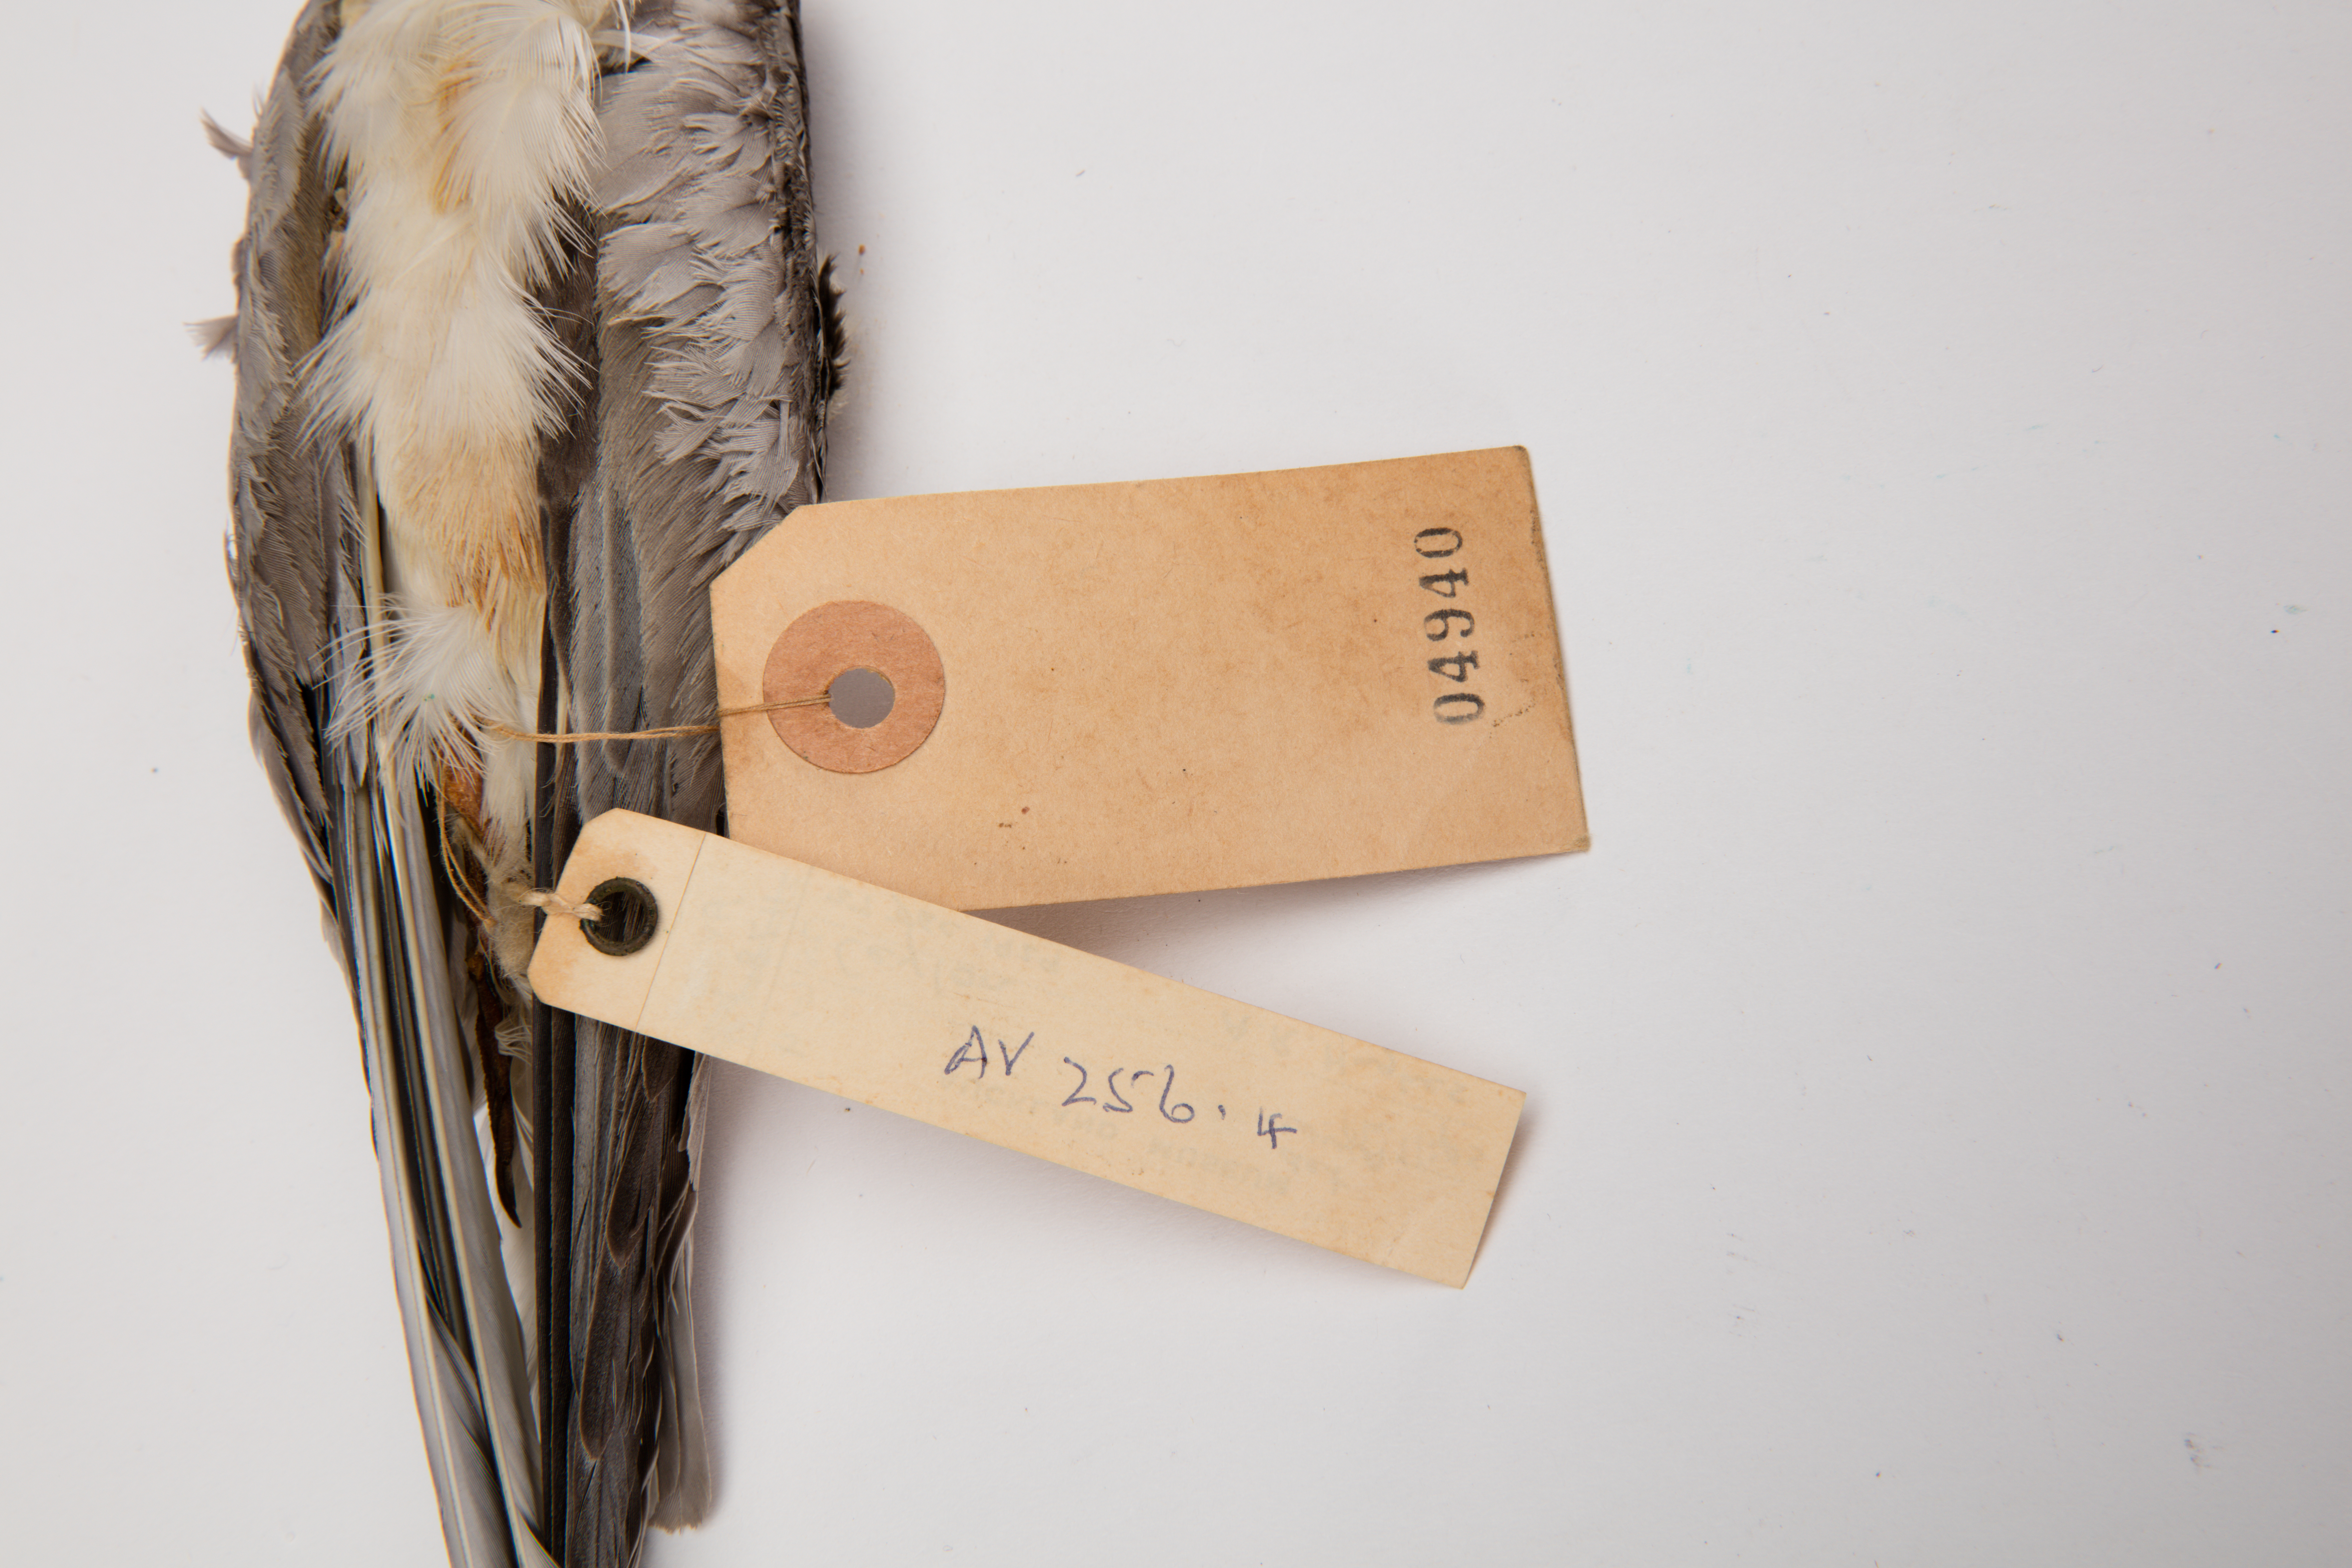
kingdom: Animalia
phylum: Chordata
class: Aves
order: Charadriiformes
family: Laridae
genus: Chlidonias
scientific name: Chlidonias leucopterus
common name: White-winged tern
